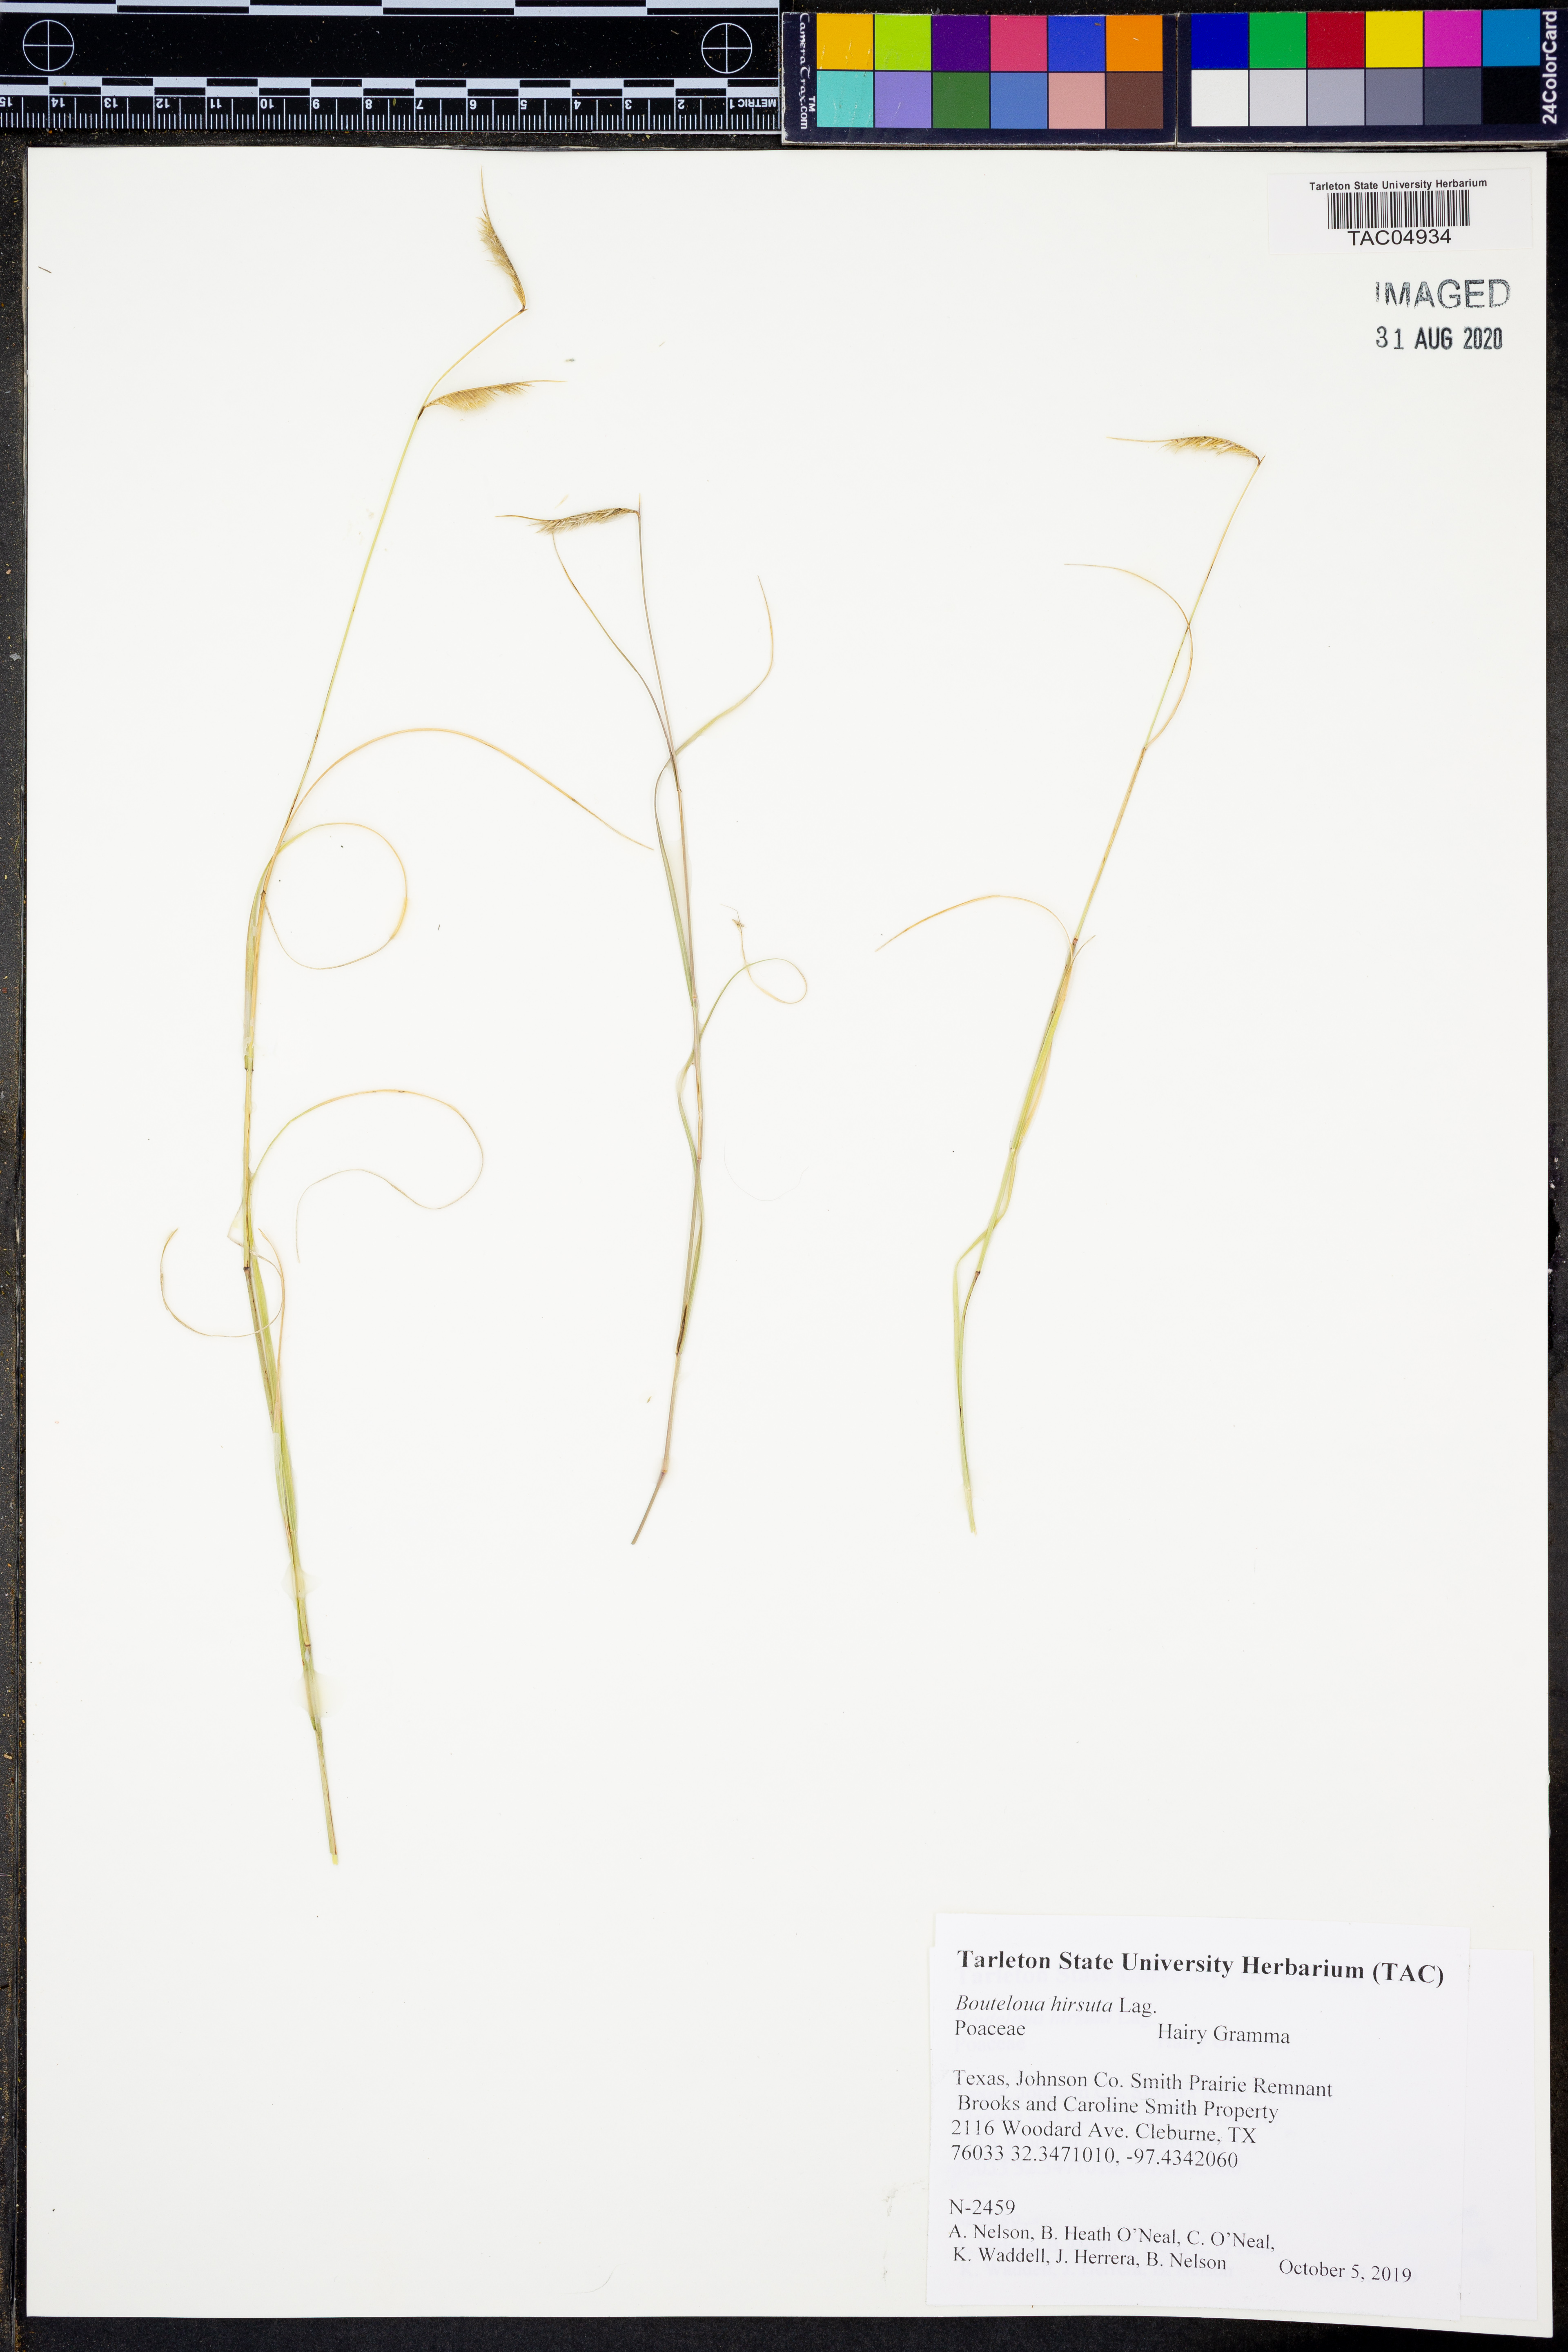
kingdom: Plantae
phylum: Tracheophyta
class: Liliopsida
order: Poales
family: Poaceae
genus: Bouteloua
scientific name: Bouteloua hirsuta
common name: Hairy grama
